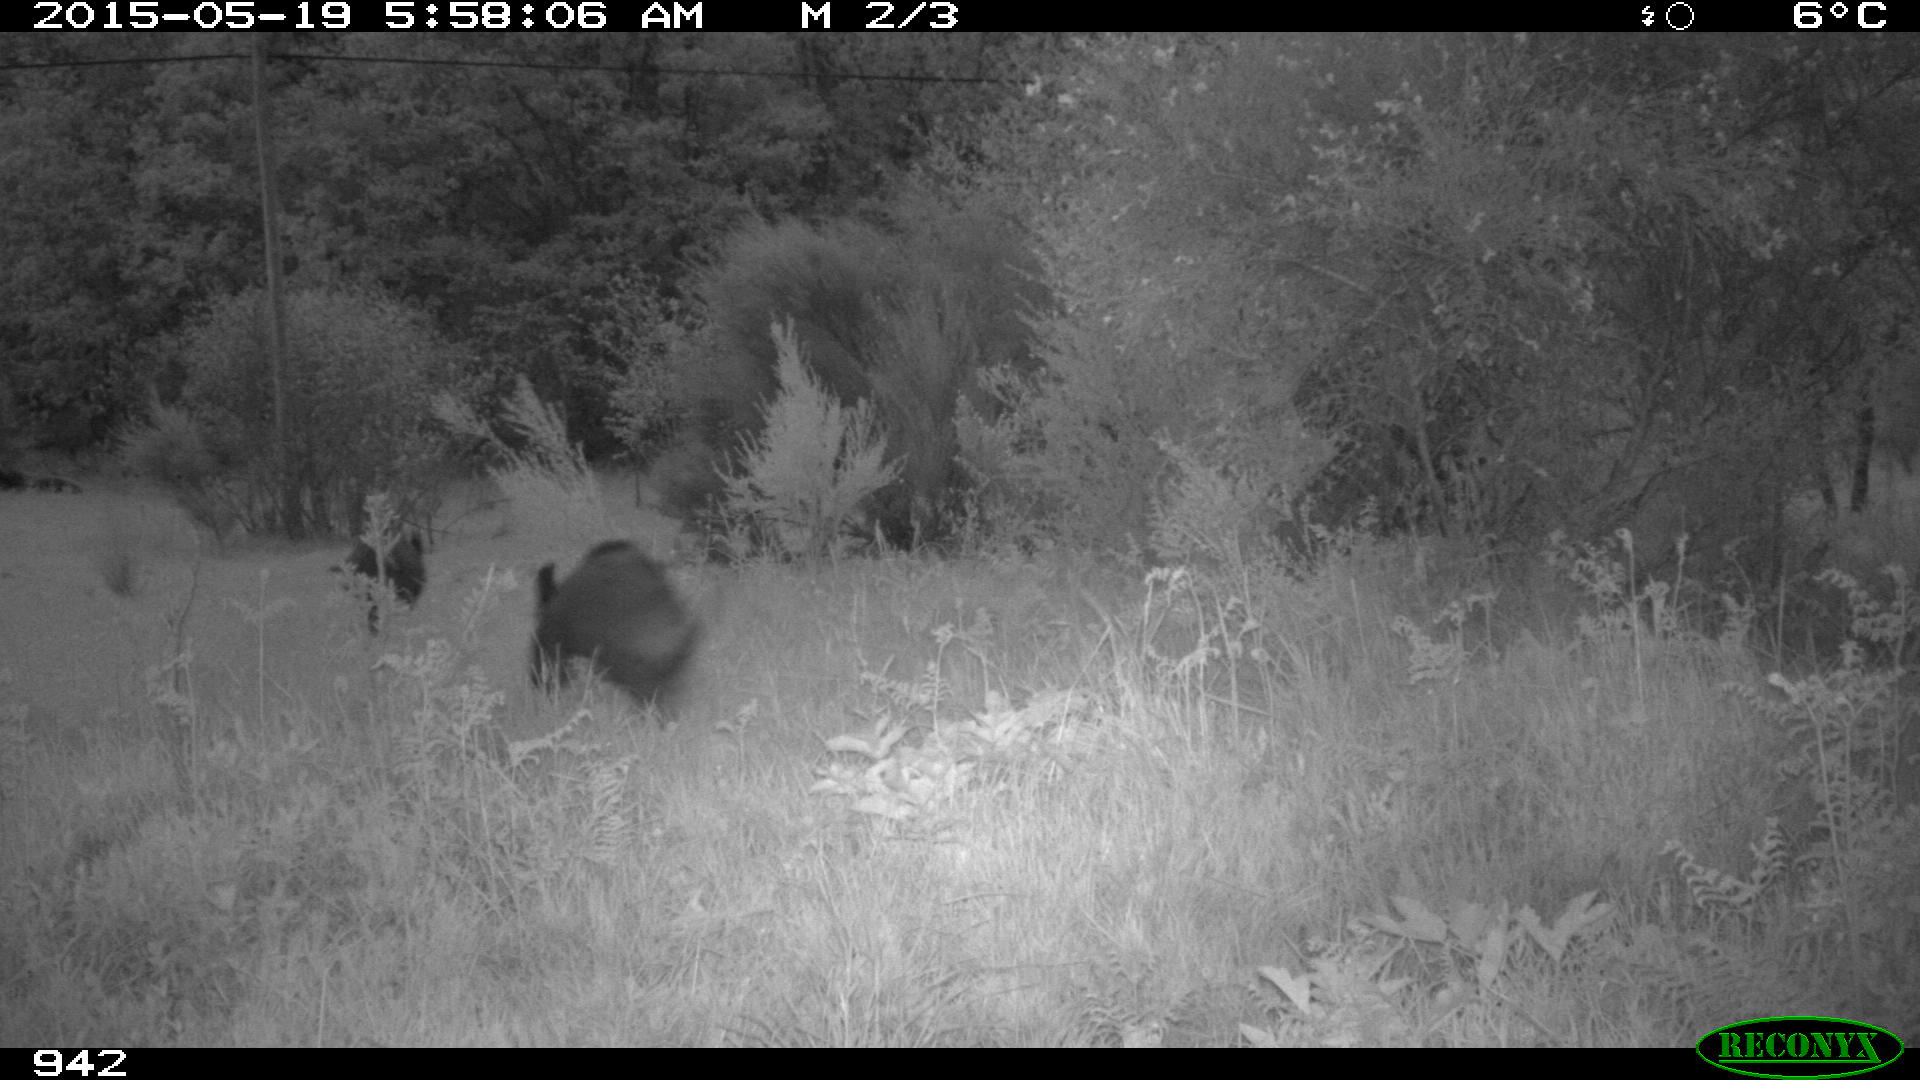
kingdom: Animalia
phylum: Chordata
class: Mammalia
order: Artiodactyla
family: Suidae
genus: Sus
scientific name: Sus scrofa
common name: Wild boar
